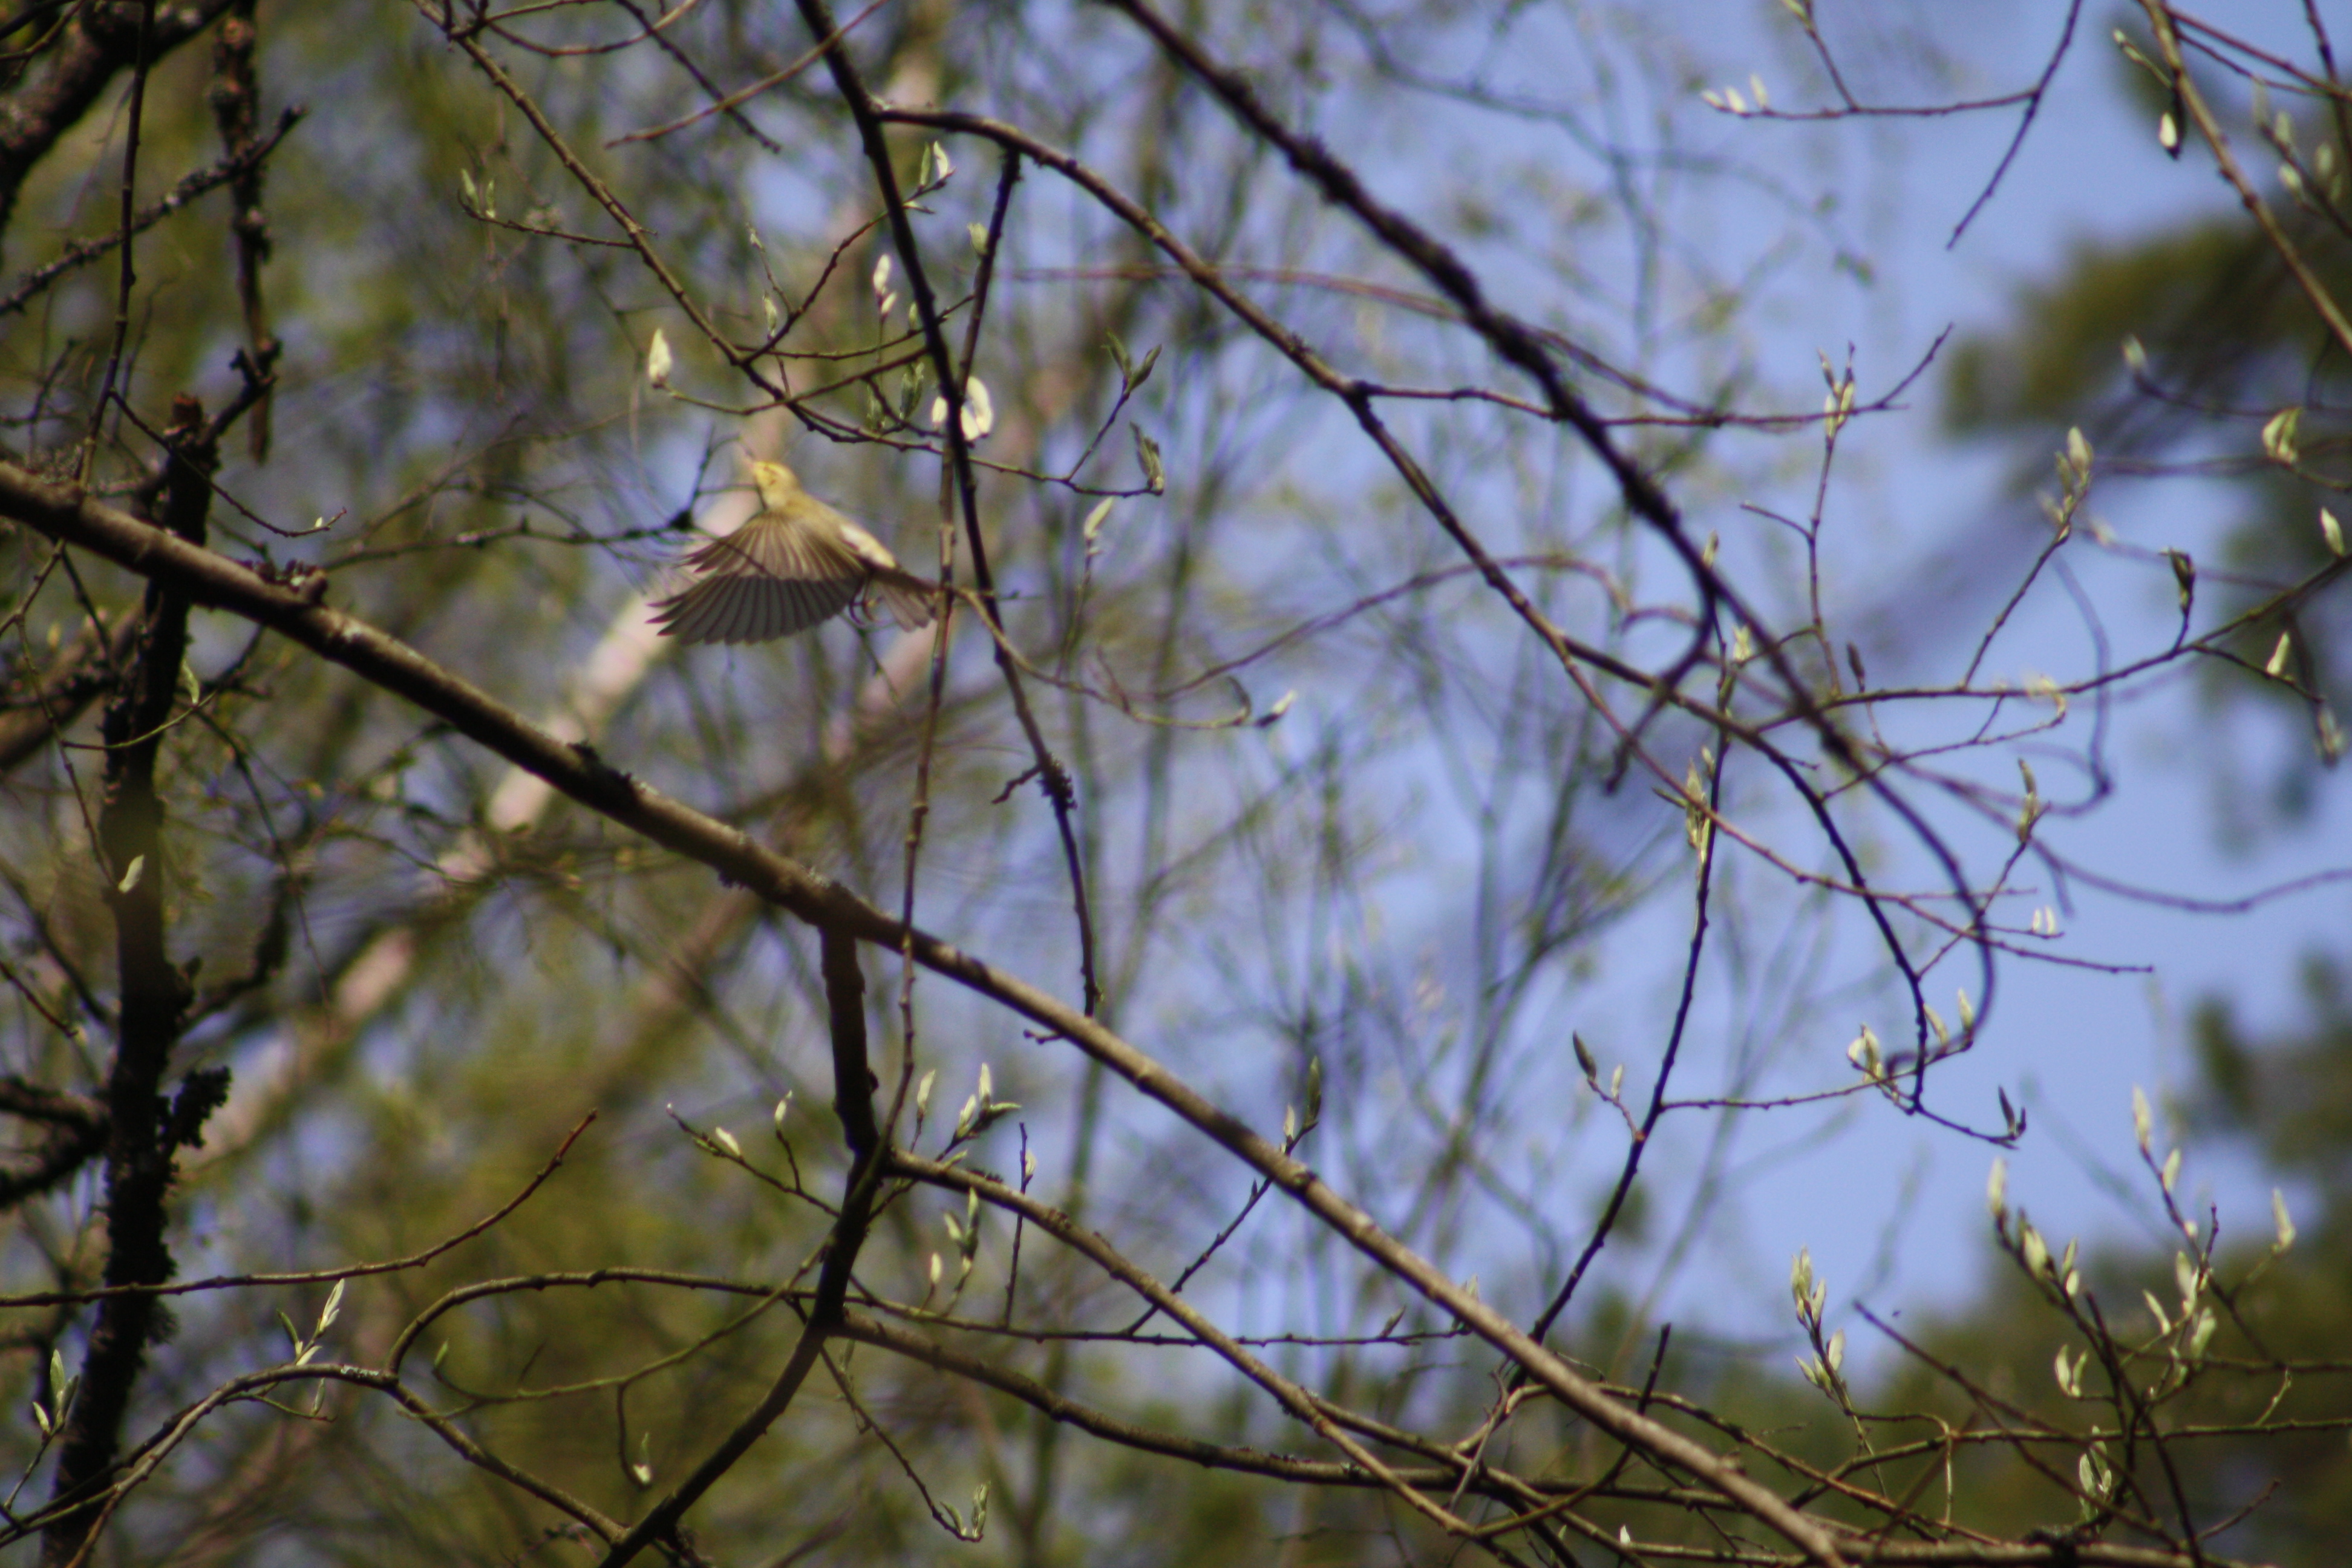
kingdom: Animalia
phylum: Chordata
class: Aves
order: Passeriformes
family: Emberizidae
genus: Emberiza
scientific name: Emberiza citrinella
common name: Yellowhammer
